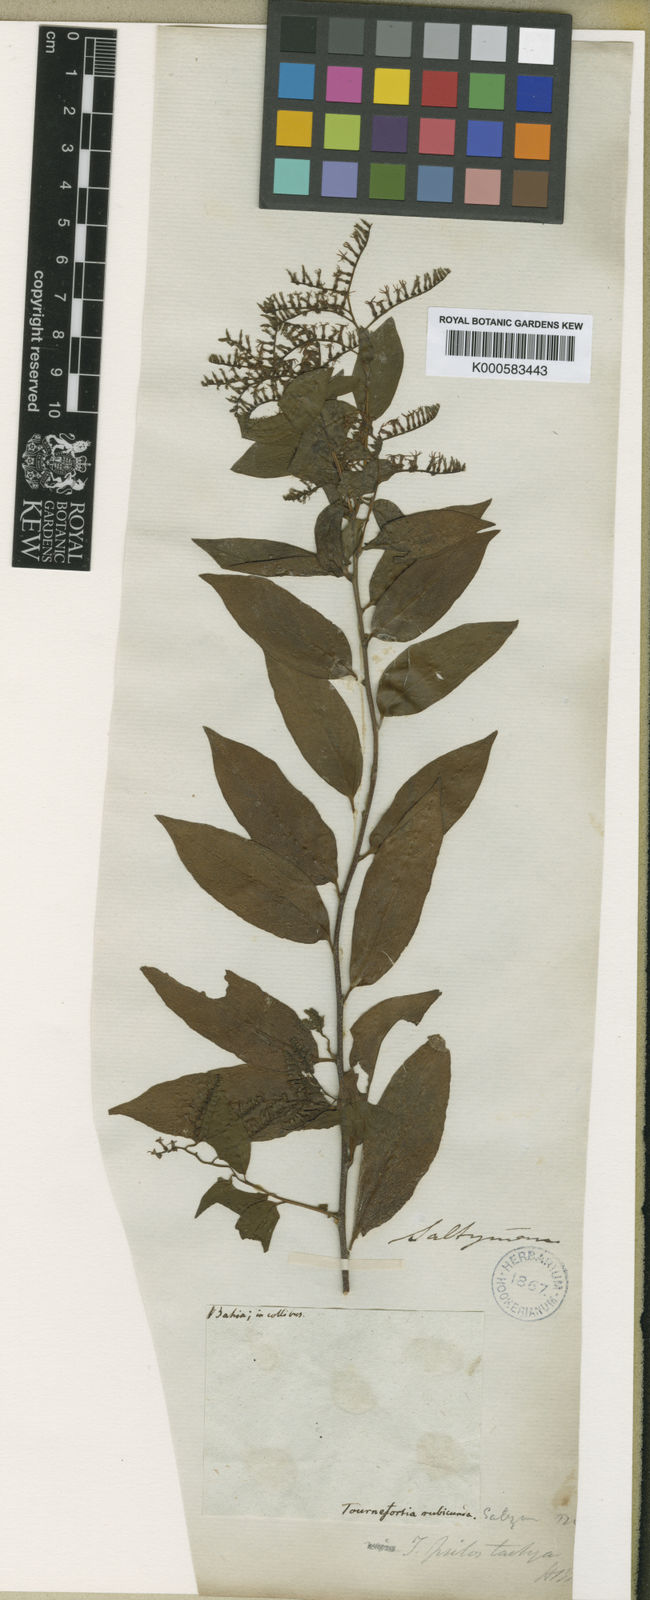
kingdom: Plantae
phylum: Tracheophyta
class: Magnoliopsida
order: Boraginales
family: Heliotropiaceae
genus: Myriopus
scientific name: Myriopus rubicundus
